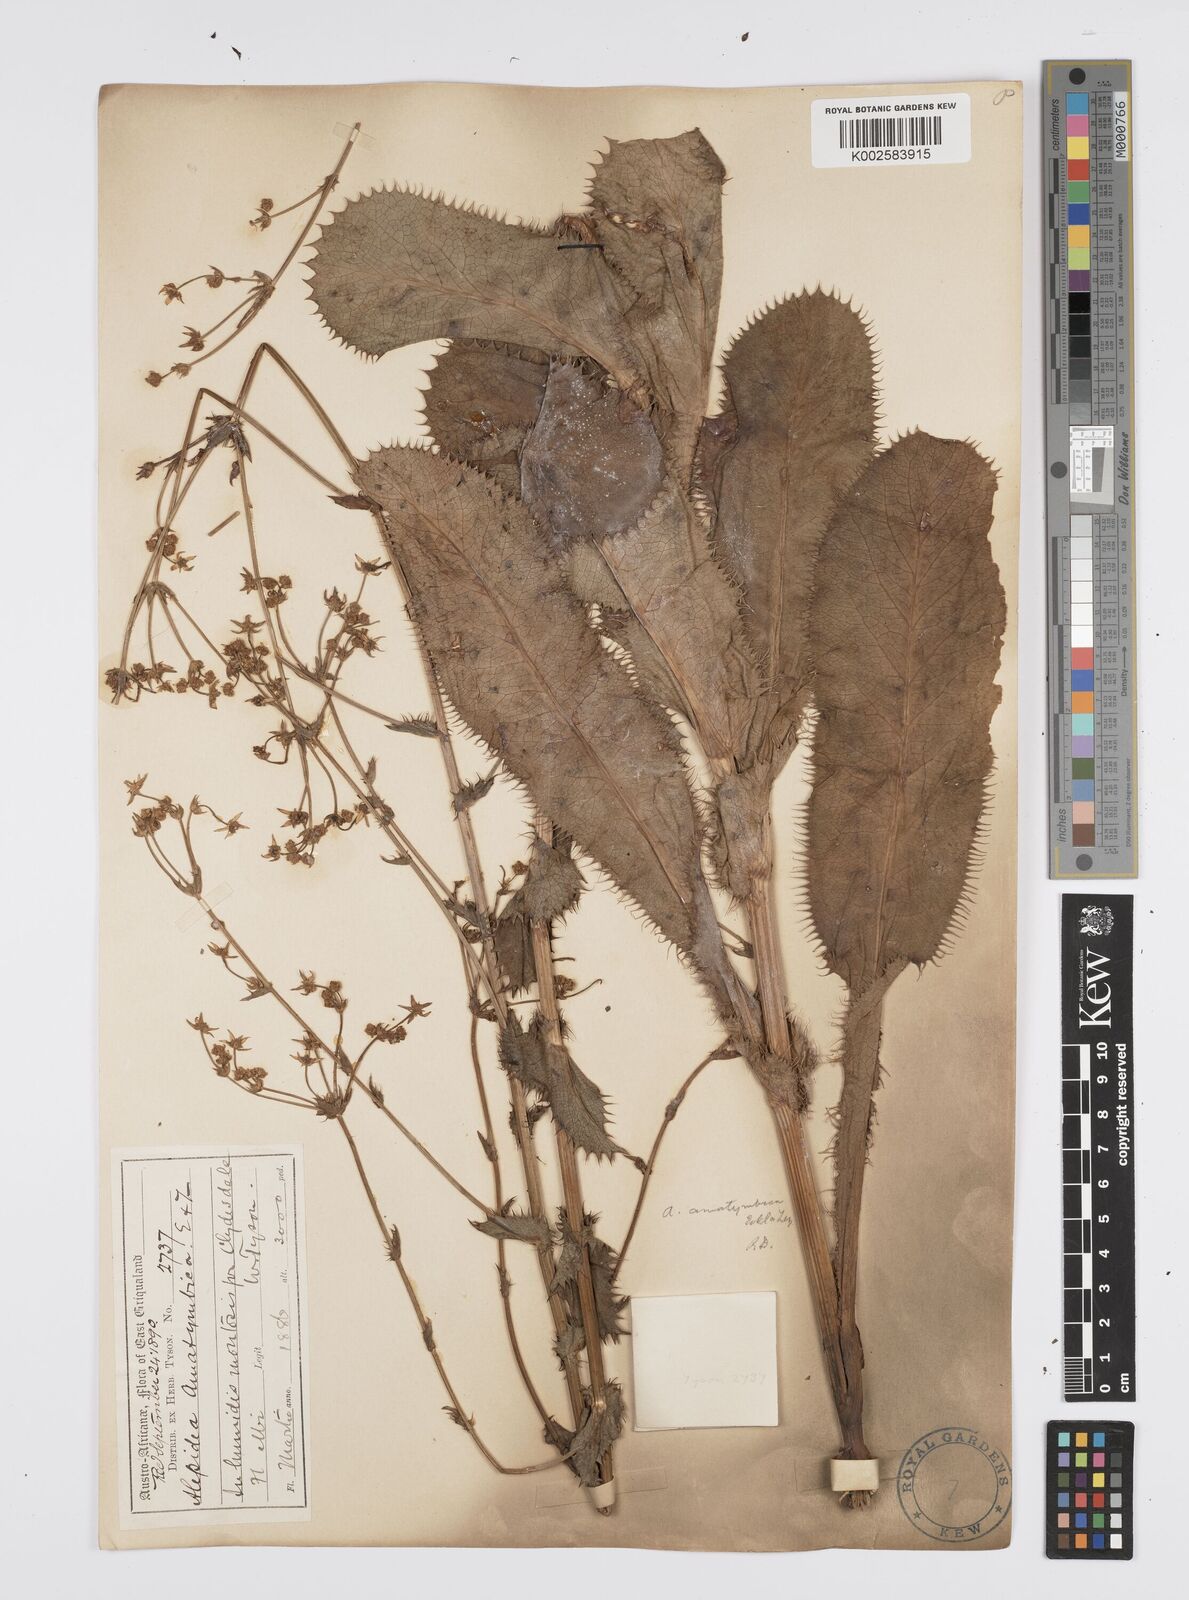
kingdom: Plantae
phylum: Tracheophyta
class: Magnoliopsida
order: Apiales
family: Apiaceae
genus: Alepidea
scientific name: Alepidea amatymbica
